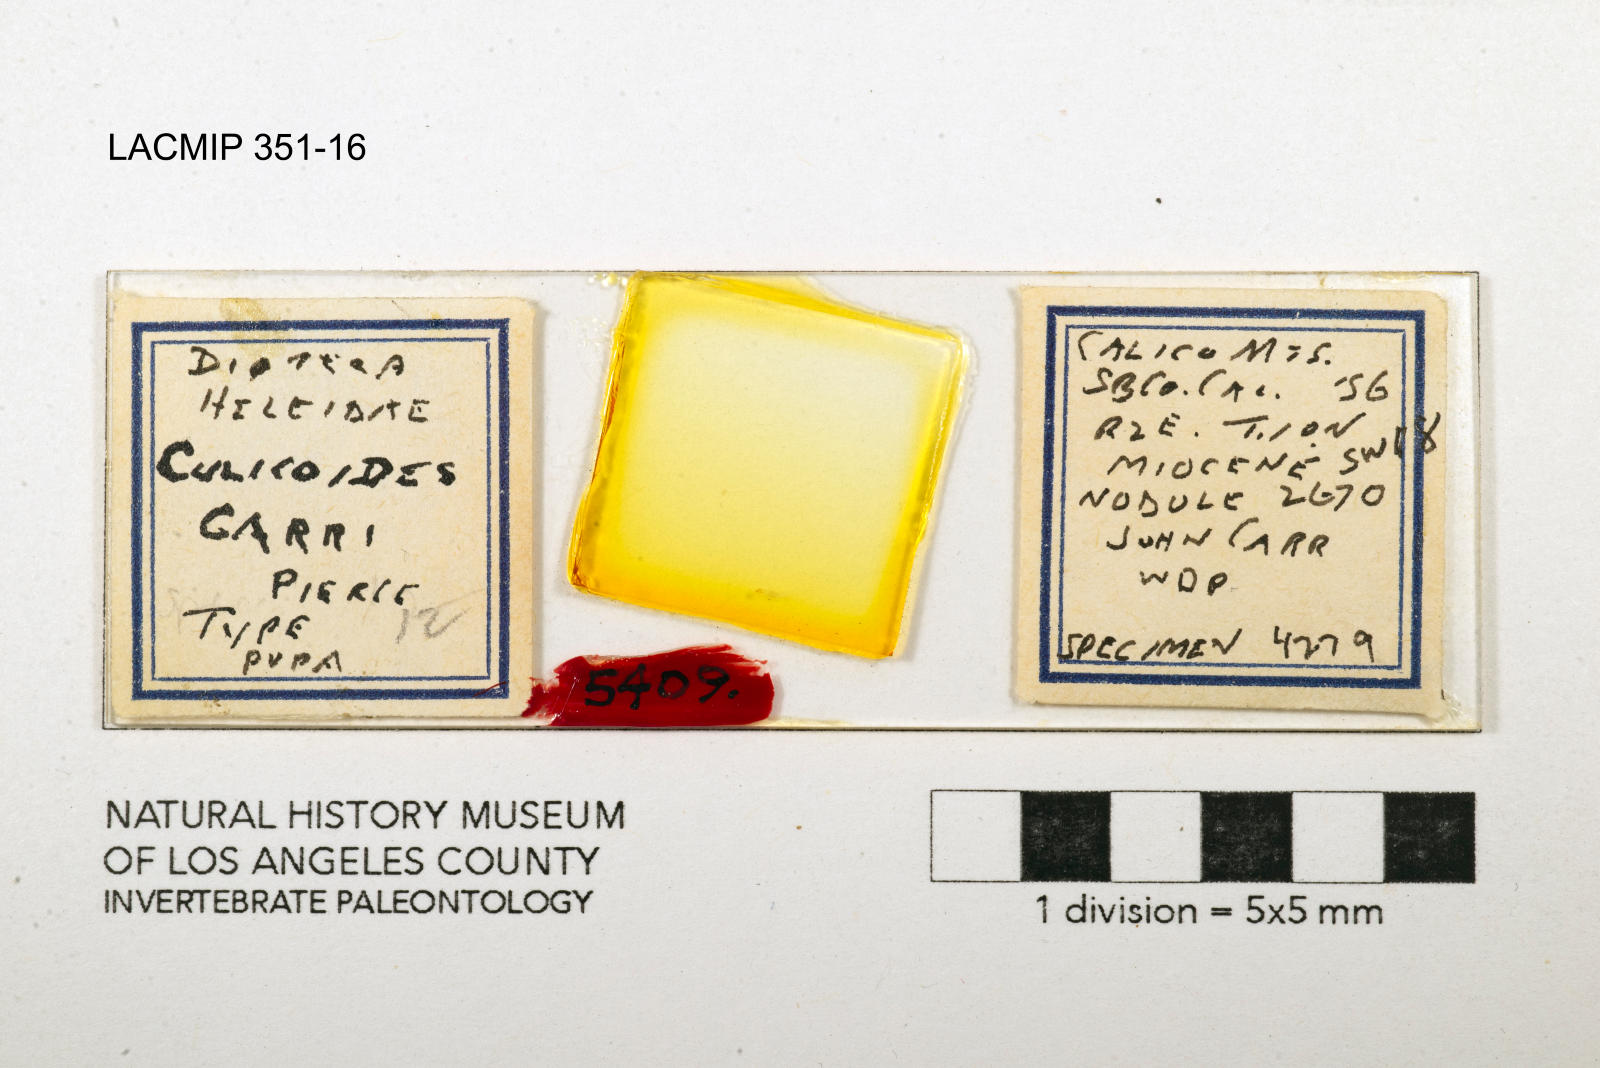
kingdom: Animalia
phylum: Arthropoda
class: Insecta
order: Diptera
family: Ceratopogonidae
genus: Culicoides
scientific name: Culicoides carri
